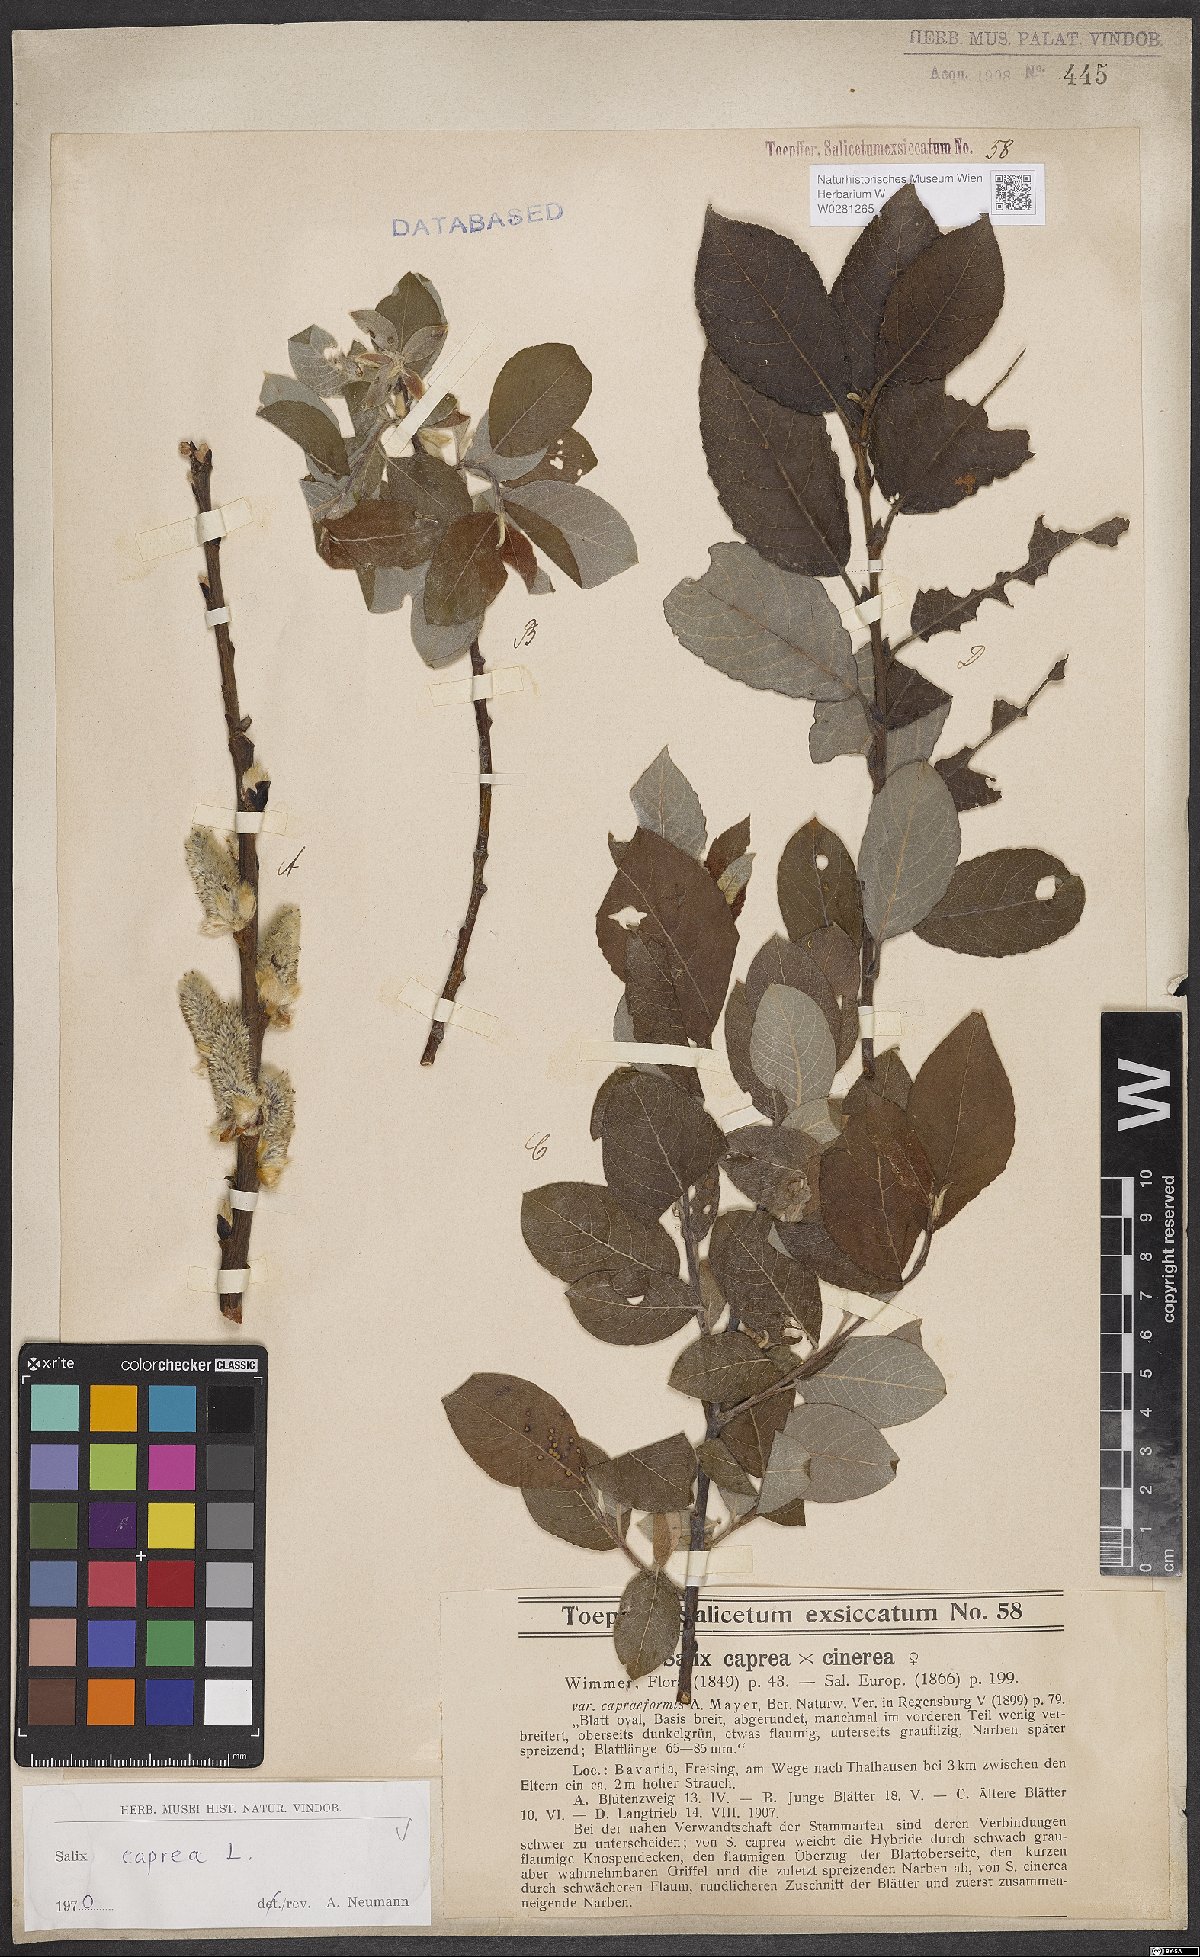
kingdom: Plantae
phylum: Tracheophyta
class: Magnoliopsida
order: Malpighiales
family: Salicaceae
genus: Salix
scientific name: Salix caprea
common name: Goat willow
